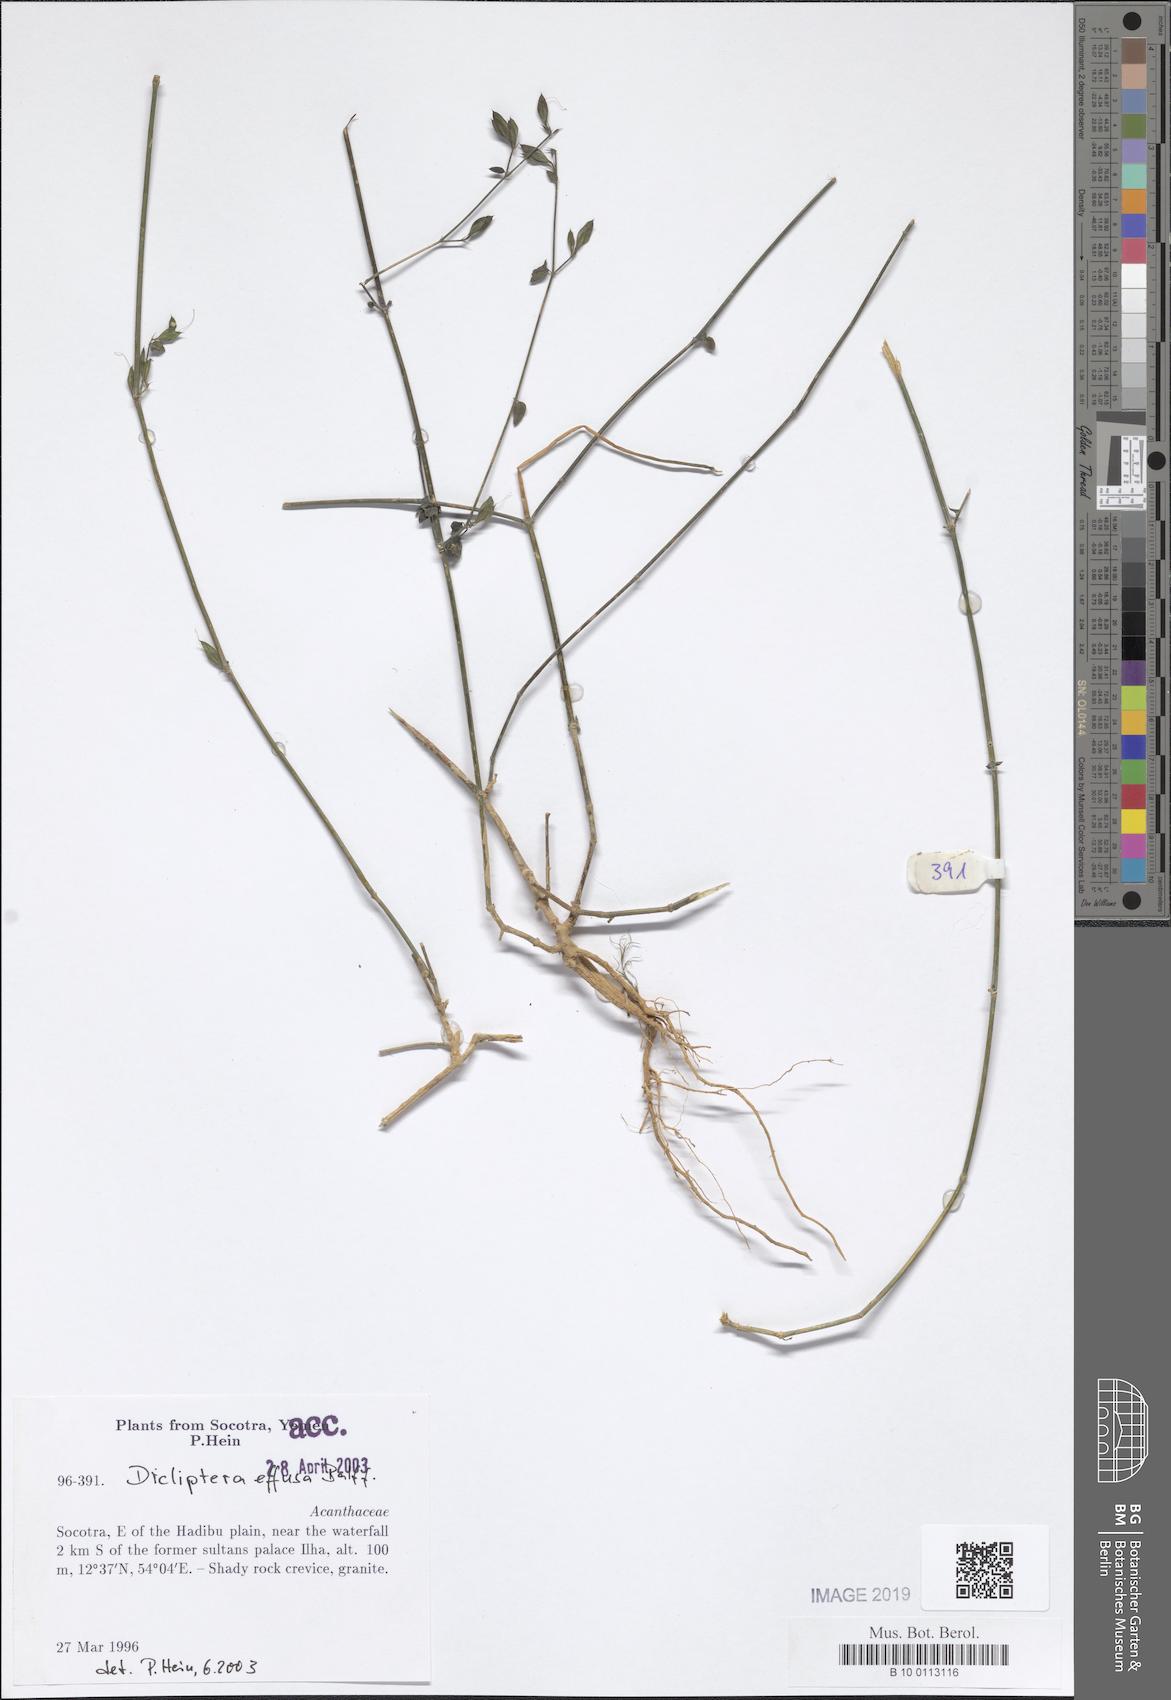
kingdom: Plantae
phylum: Tracheophyta
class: Magnoliopsida
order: Lamiales
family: Acanthaceae
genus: Dicliptera
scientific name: Dicliptera effusa
